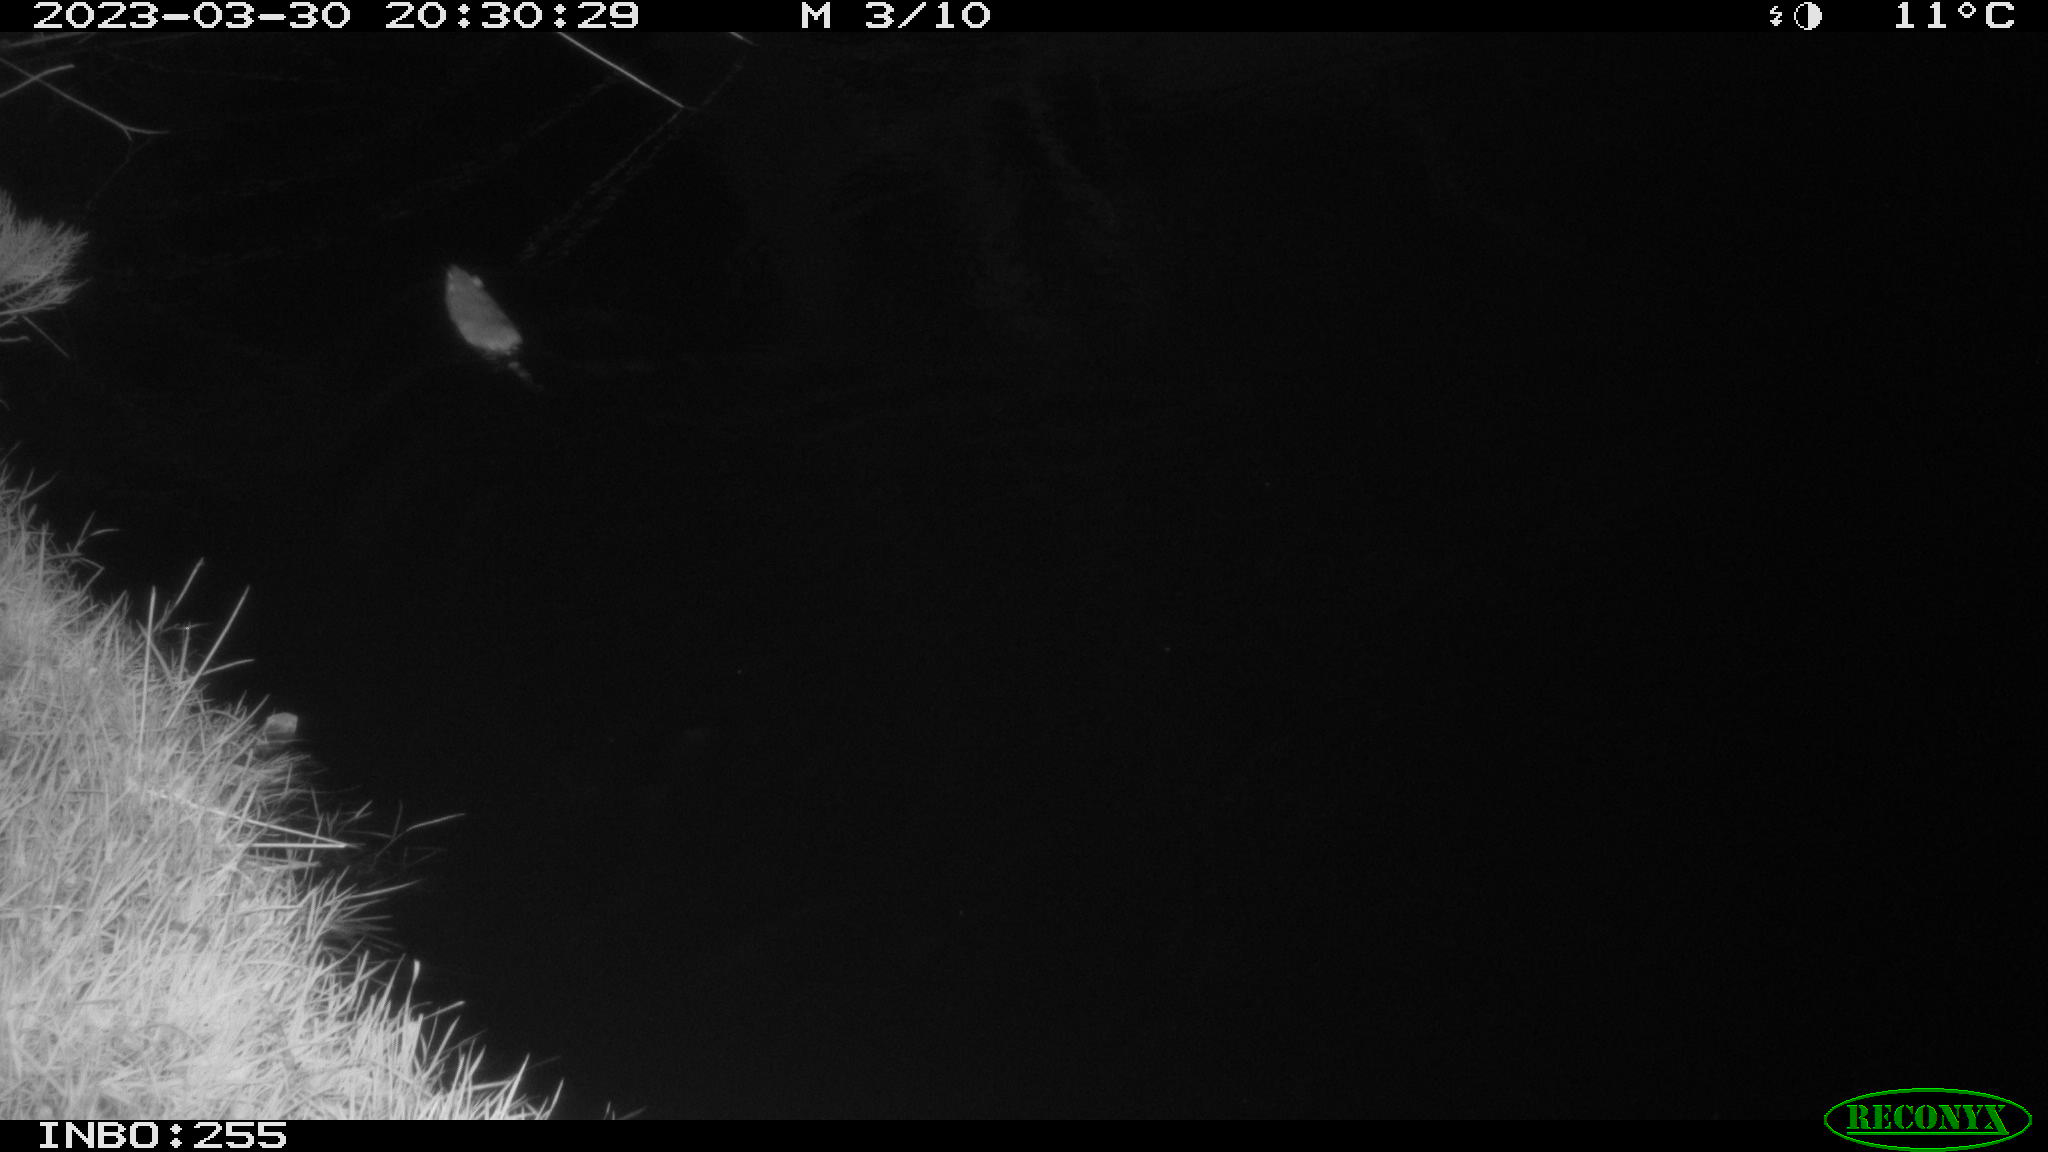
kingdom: Animalia
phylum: Chordata
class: Mammalia
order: Rodentia
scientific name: Rodentia
